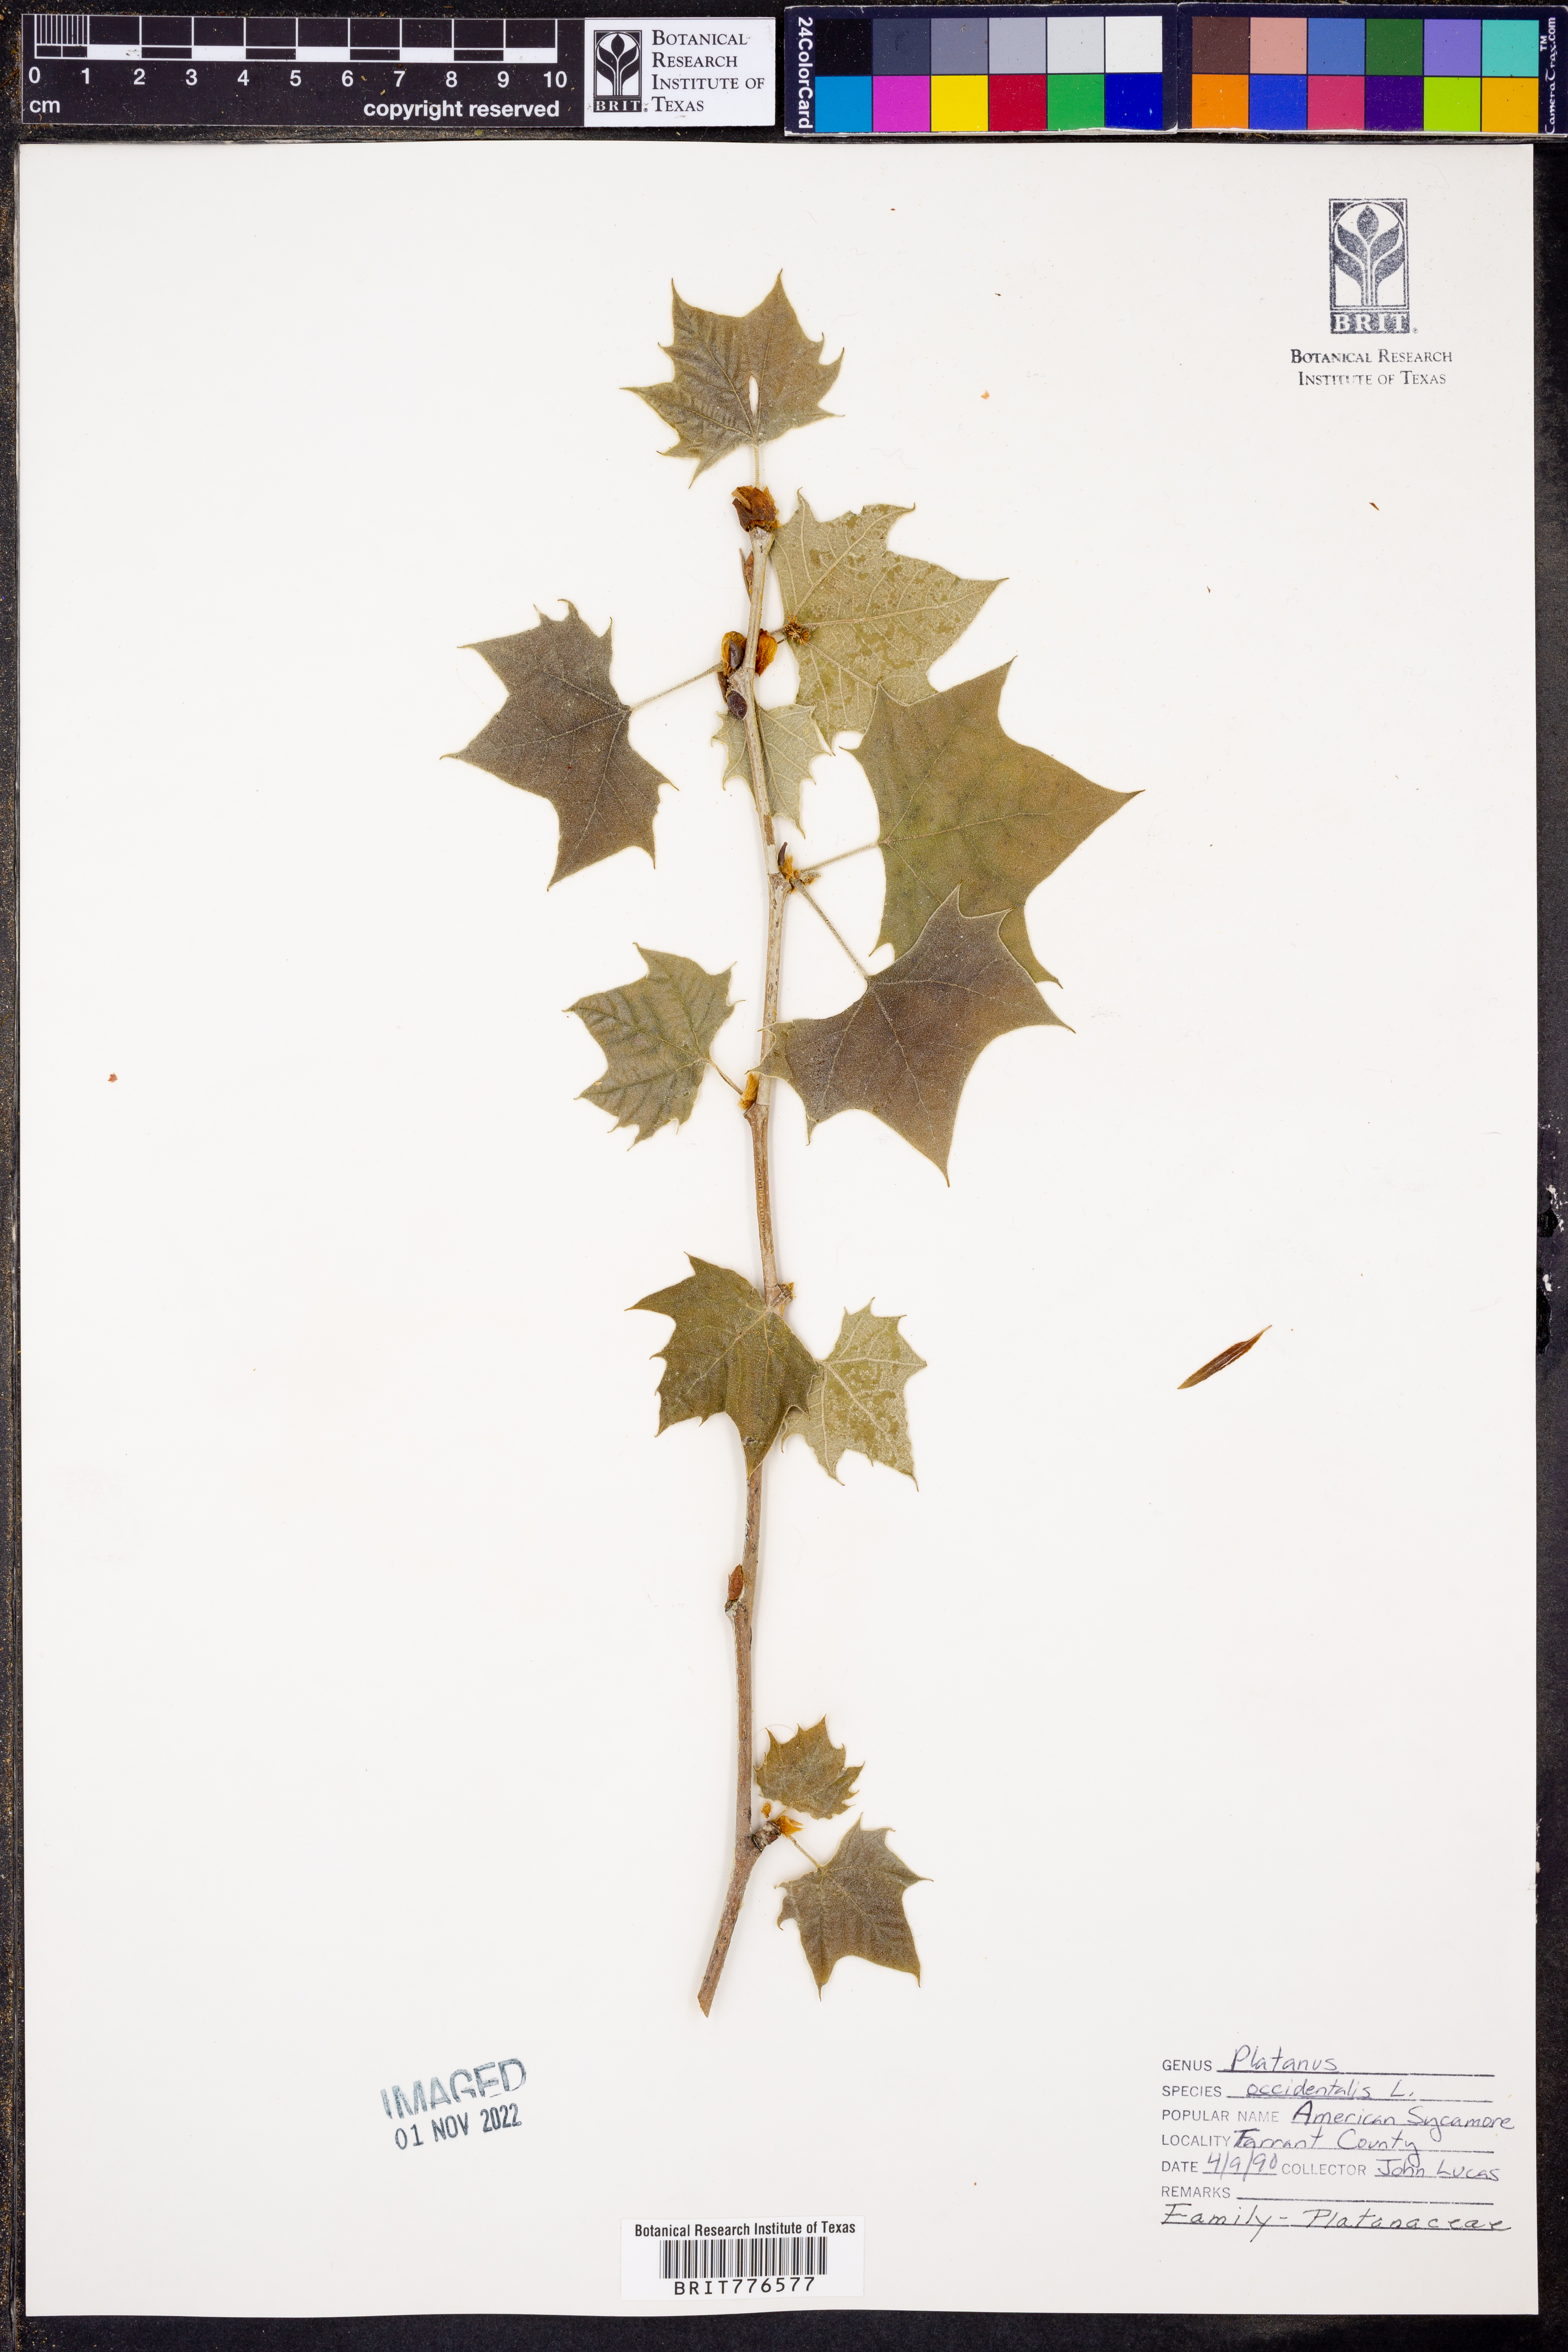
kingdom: Plantae
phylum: Tracheophyta
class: Magnoliopsida
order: Proteales
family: Platanaceae
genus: Platanus
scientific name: Platanus occidentalis
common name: American sycamore
